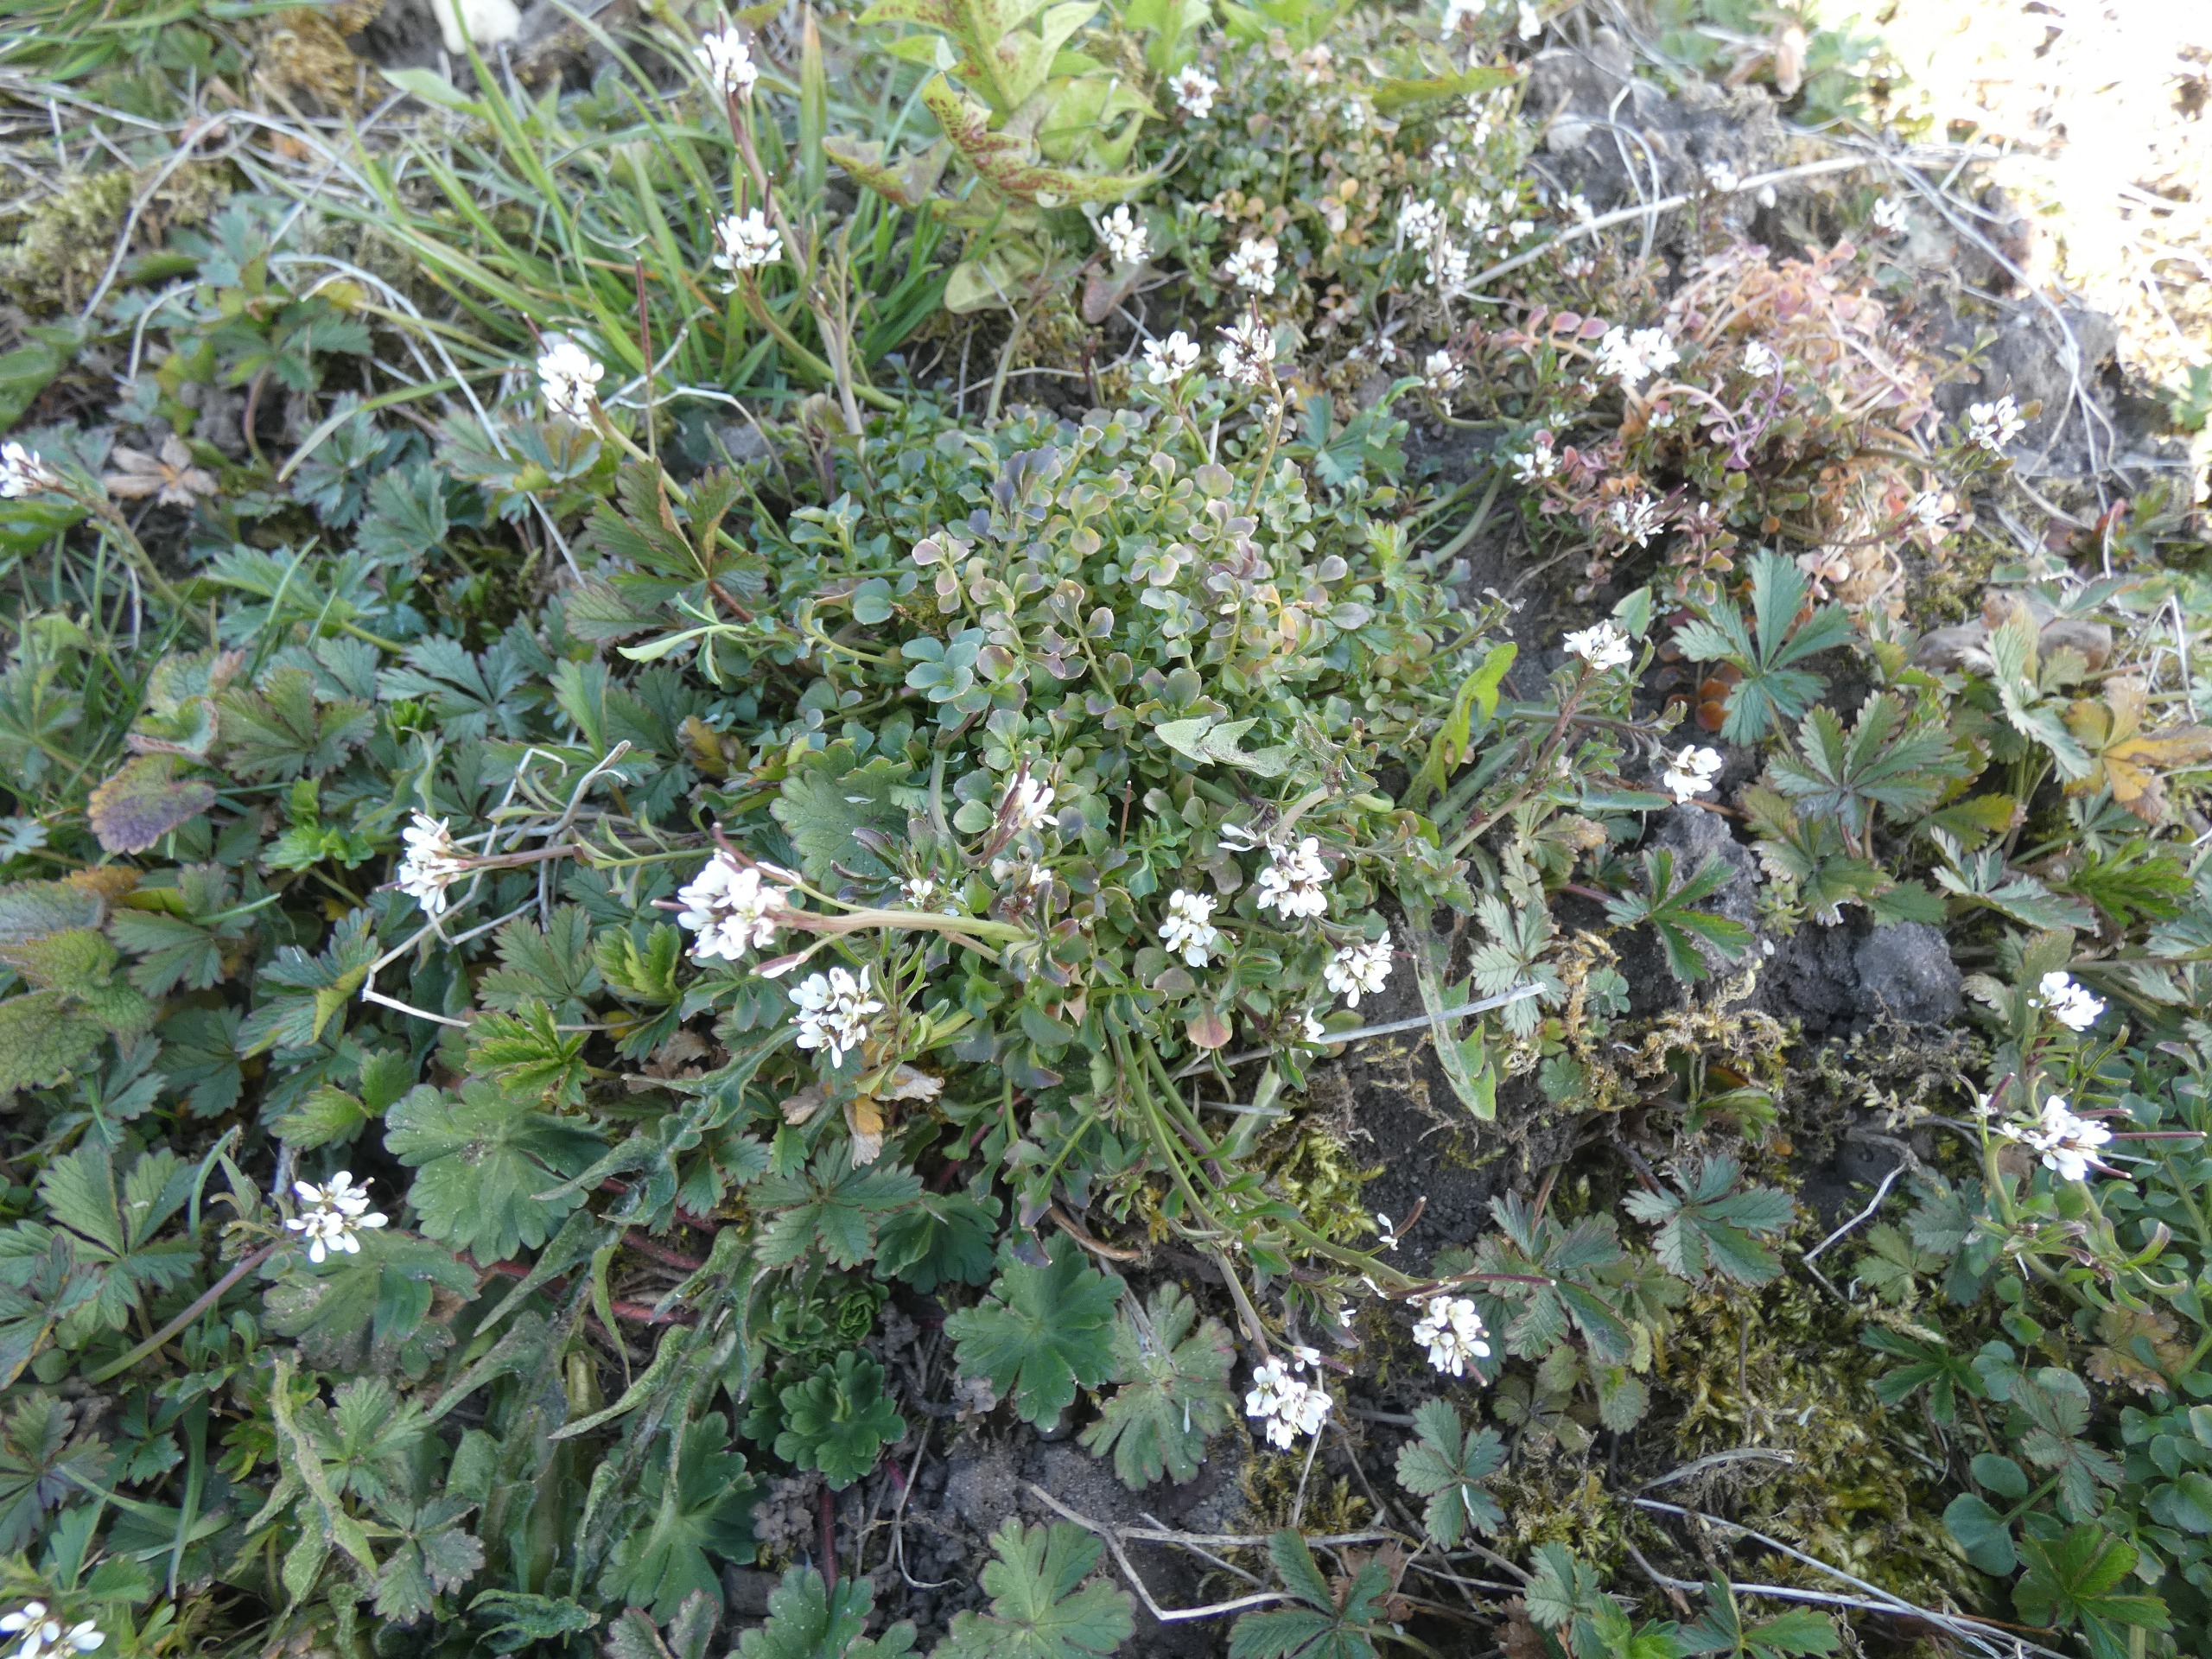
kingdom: Plantae
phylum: Tracheophyta
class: Magnoliopsida
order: Brassicales
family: Brassicaceae
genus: Cardamine
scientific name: Cardamine hirsuta
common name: Roset-springklap
